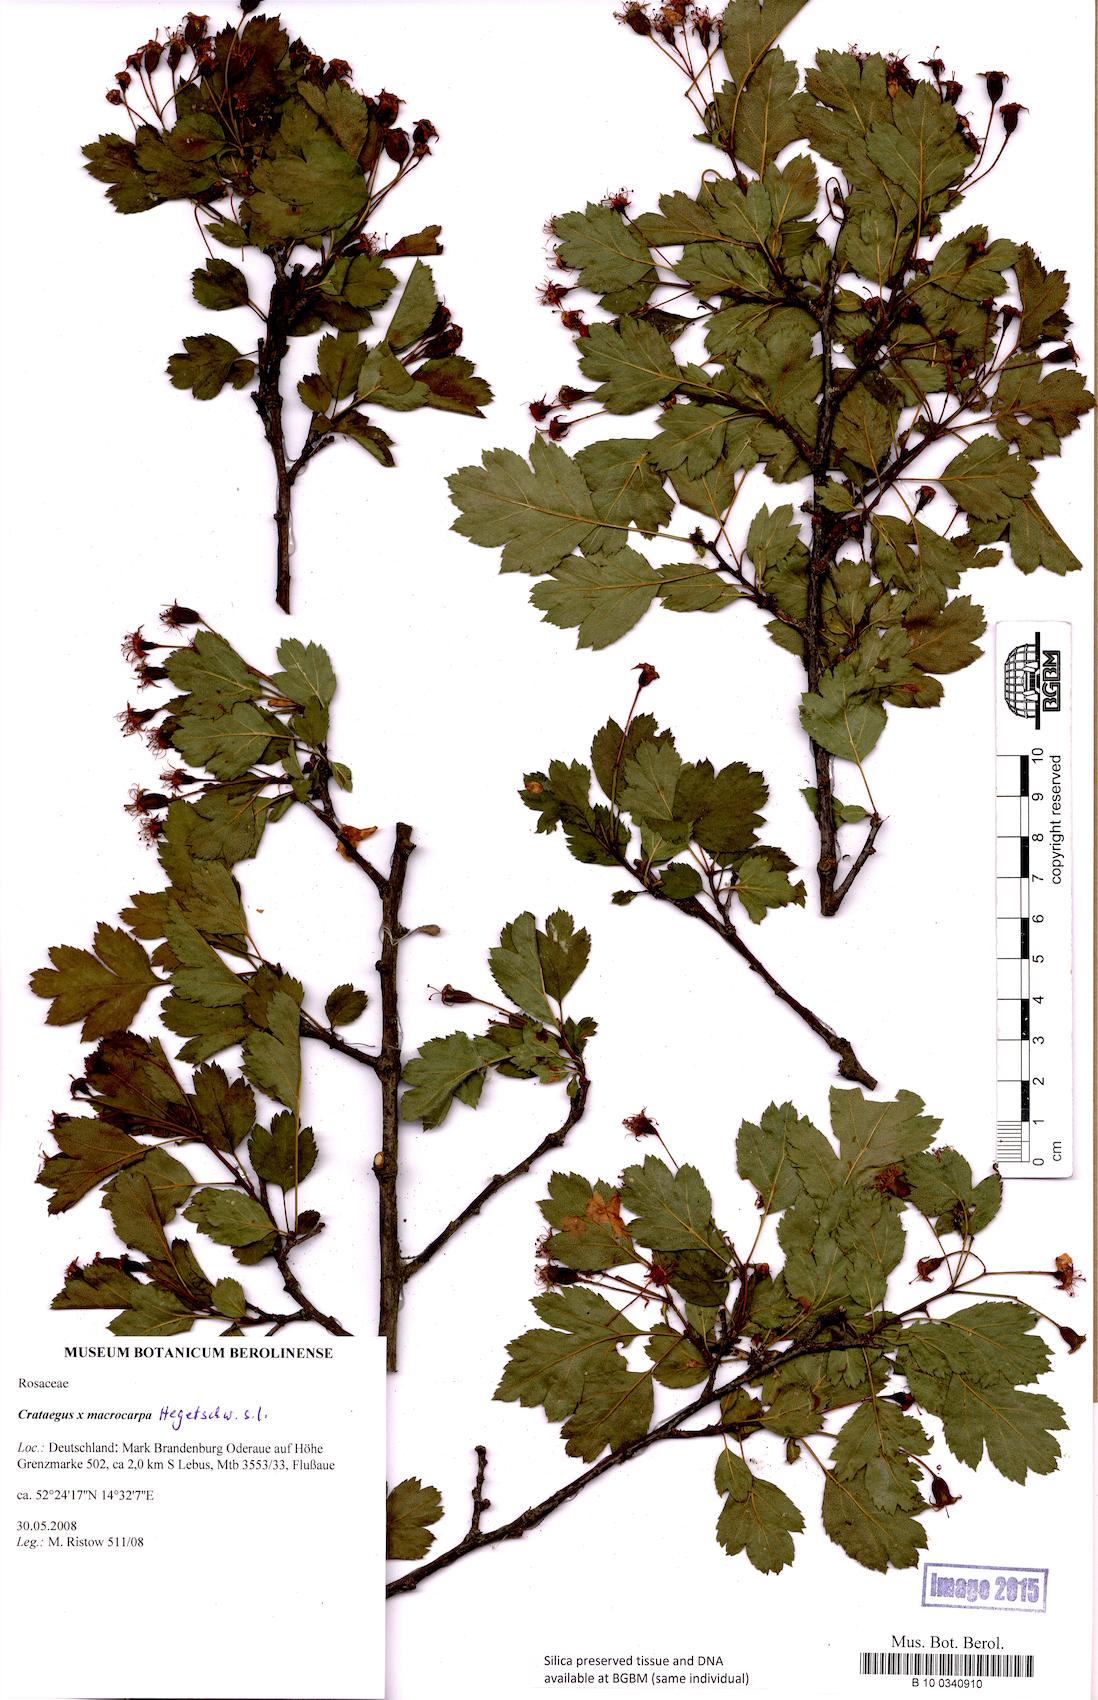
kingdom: Plantae
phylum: Tracheophyta
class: Magnoliopsida
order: Rosales
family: Rosaceae
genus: Crataegus
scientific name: Crataegus macrocarpa
